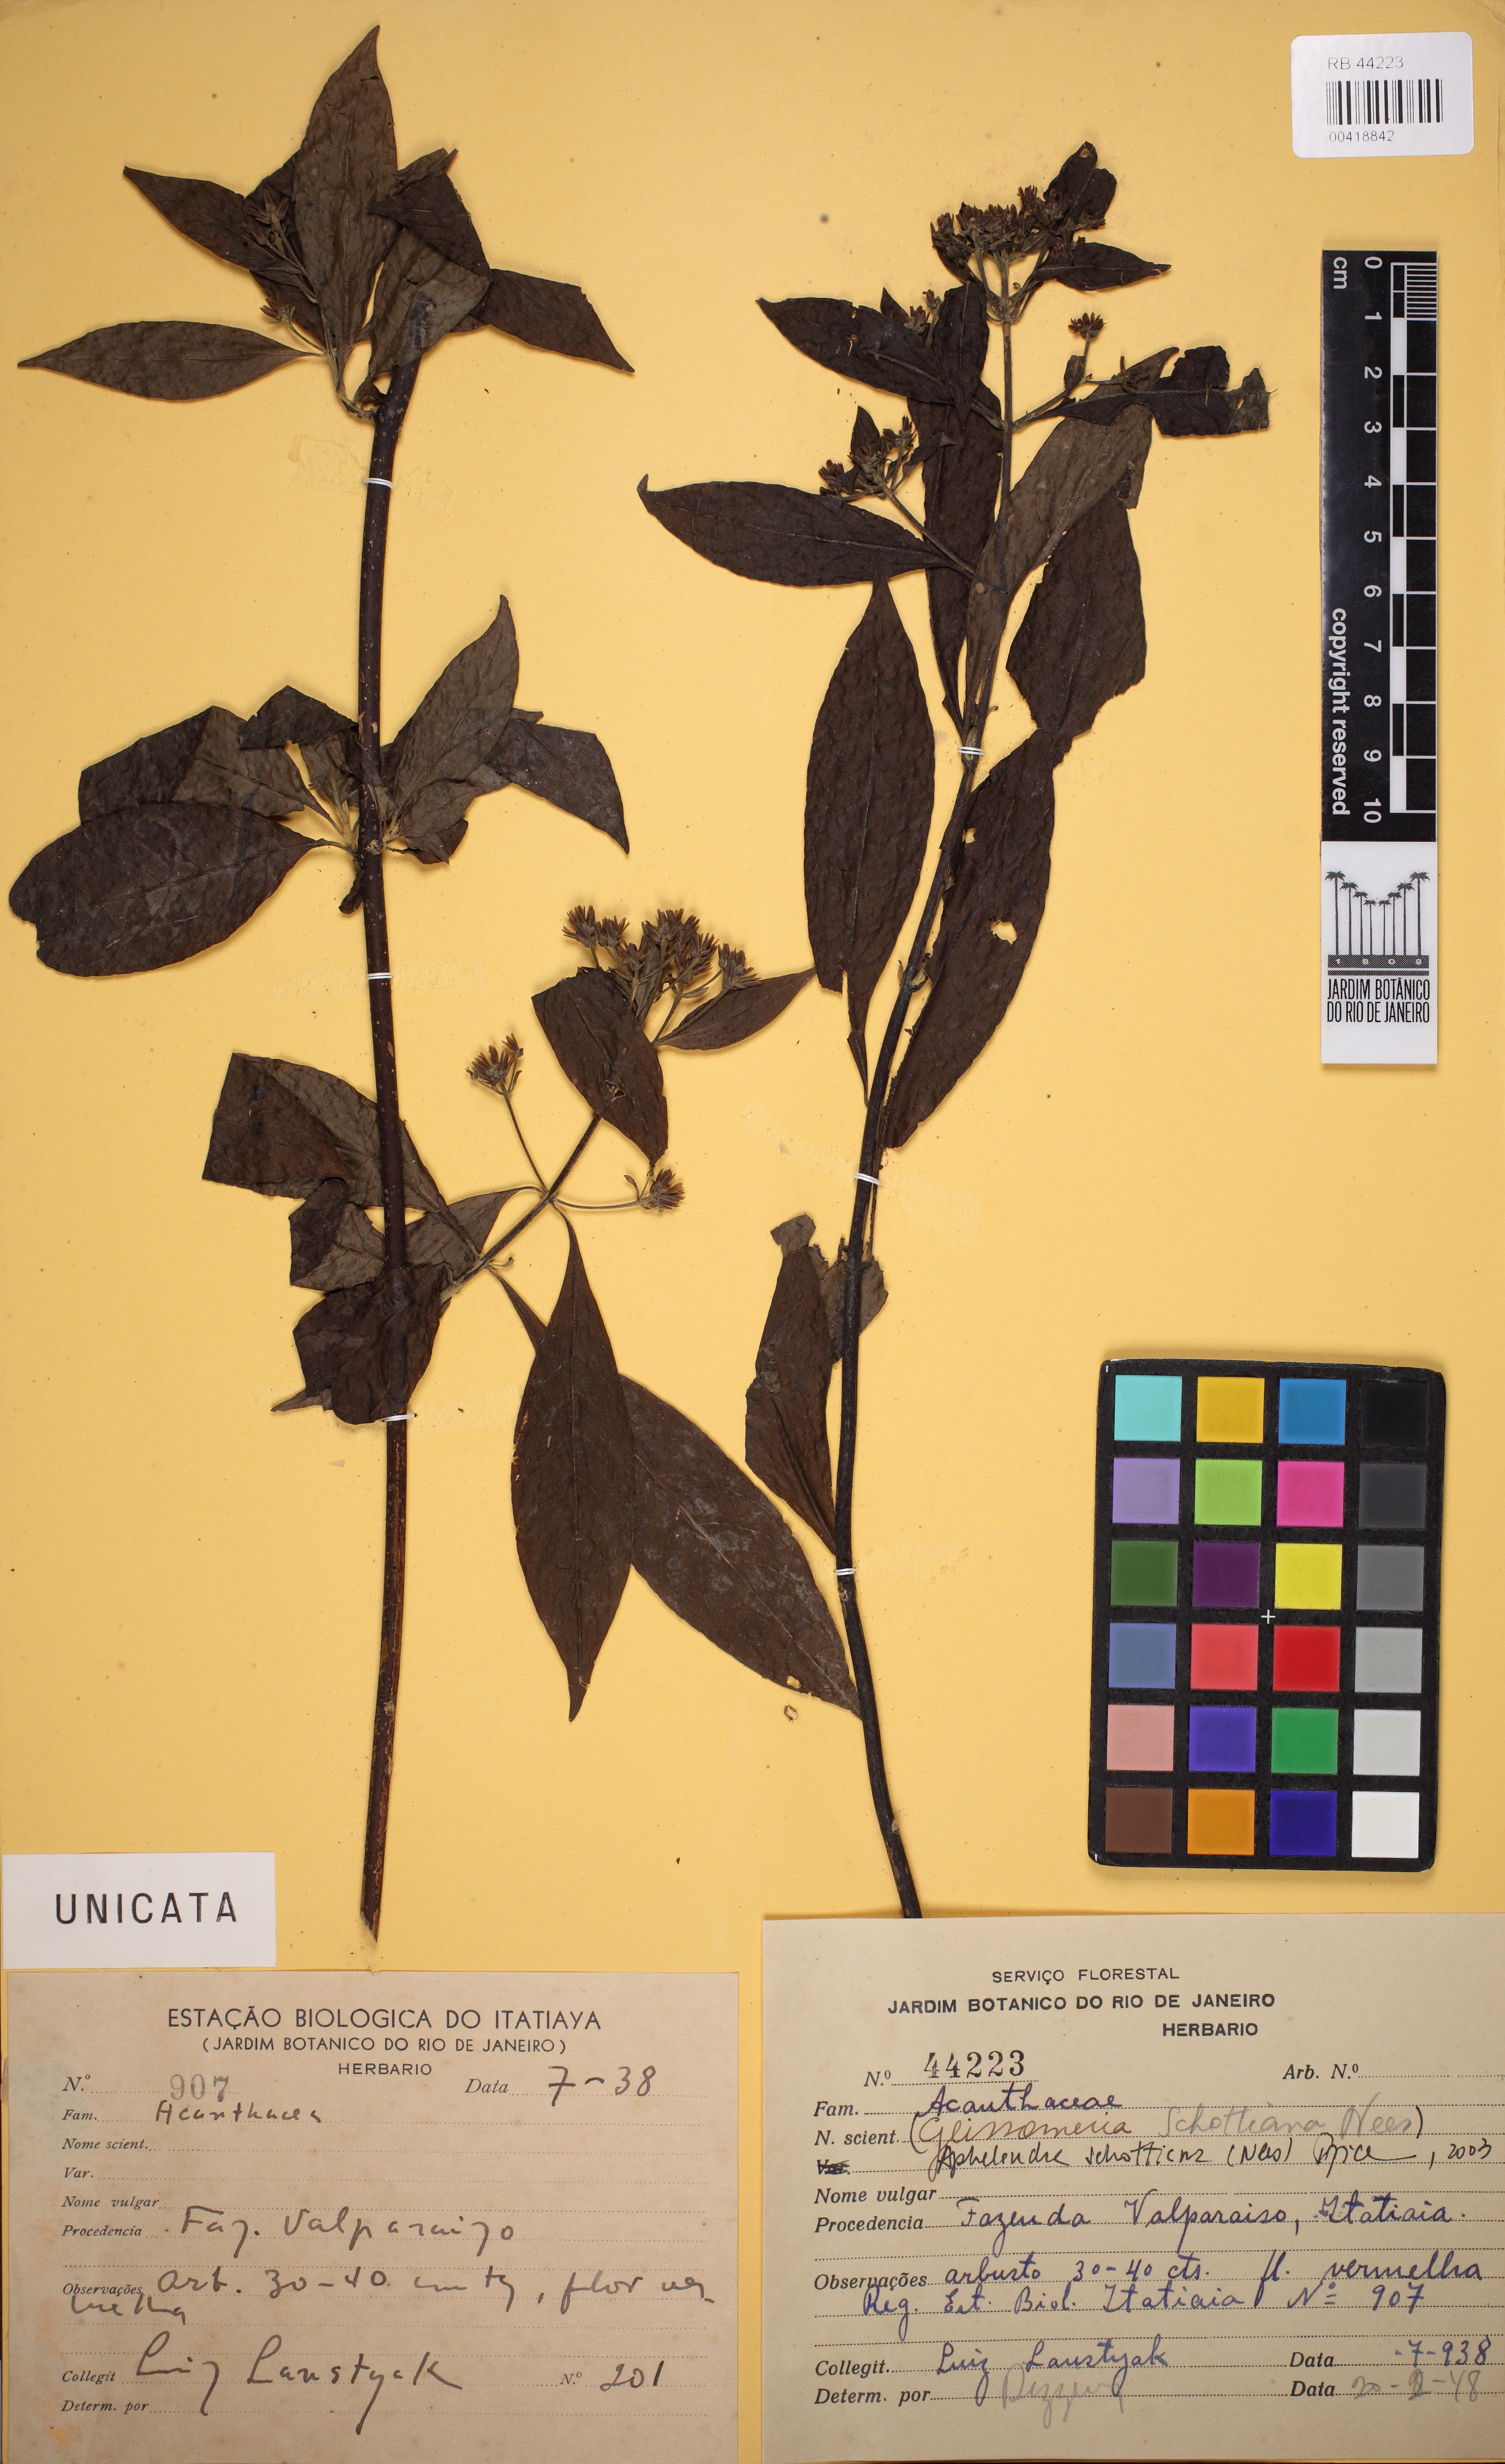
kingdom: Plantae
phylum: Tracheophyta
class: Magnoliopsida
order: Lamiales
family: Acanthaceae
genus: Aphelandra
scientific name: Aphelandra schottiana
